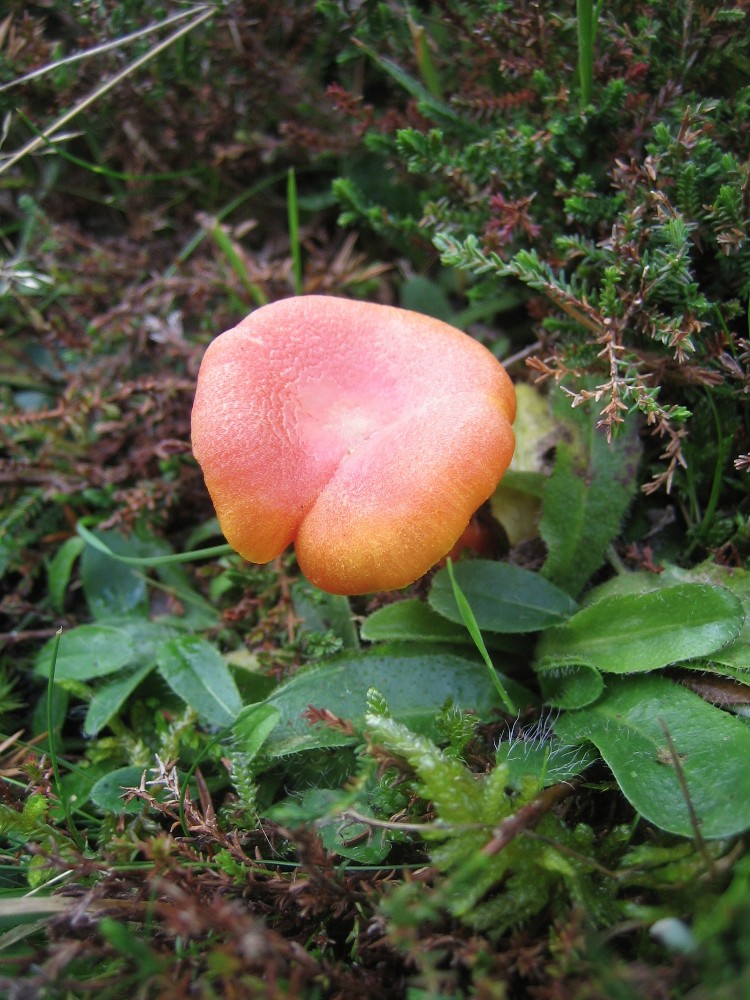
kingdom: Fungi
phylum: Basidiomycota
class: Agaricomycetes
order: Agaricales
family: Hygrophoraceae
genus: Hygrocybe
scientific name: Hygrocybe reidii
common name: honning-vokshat
